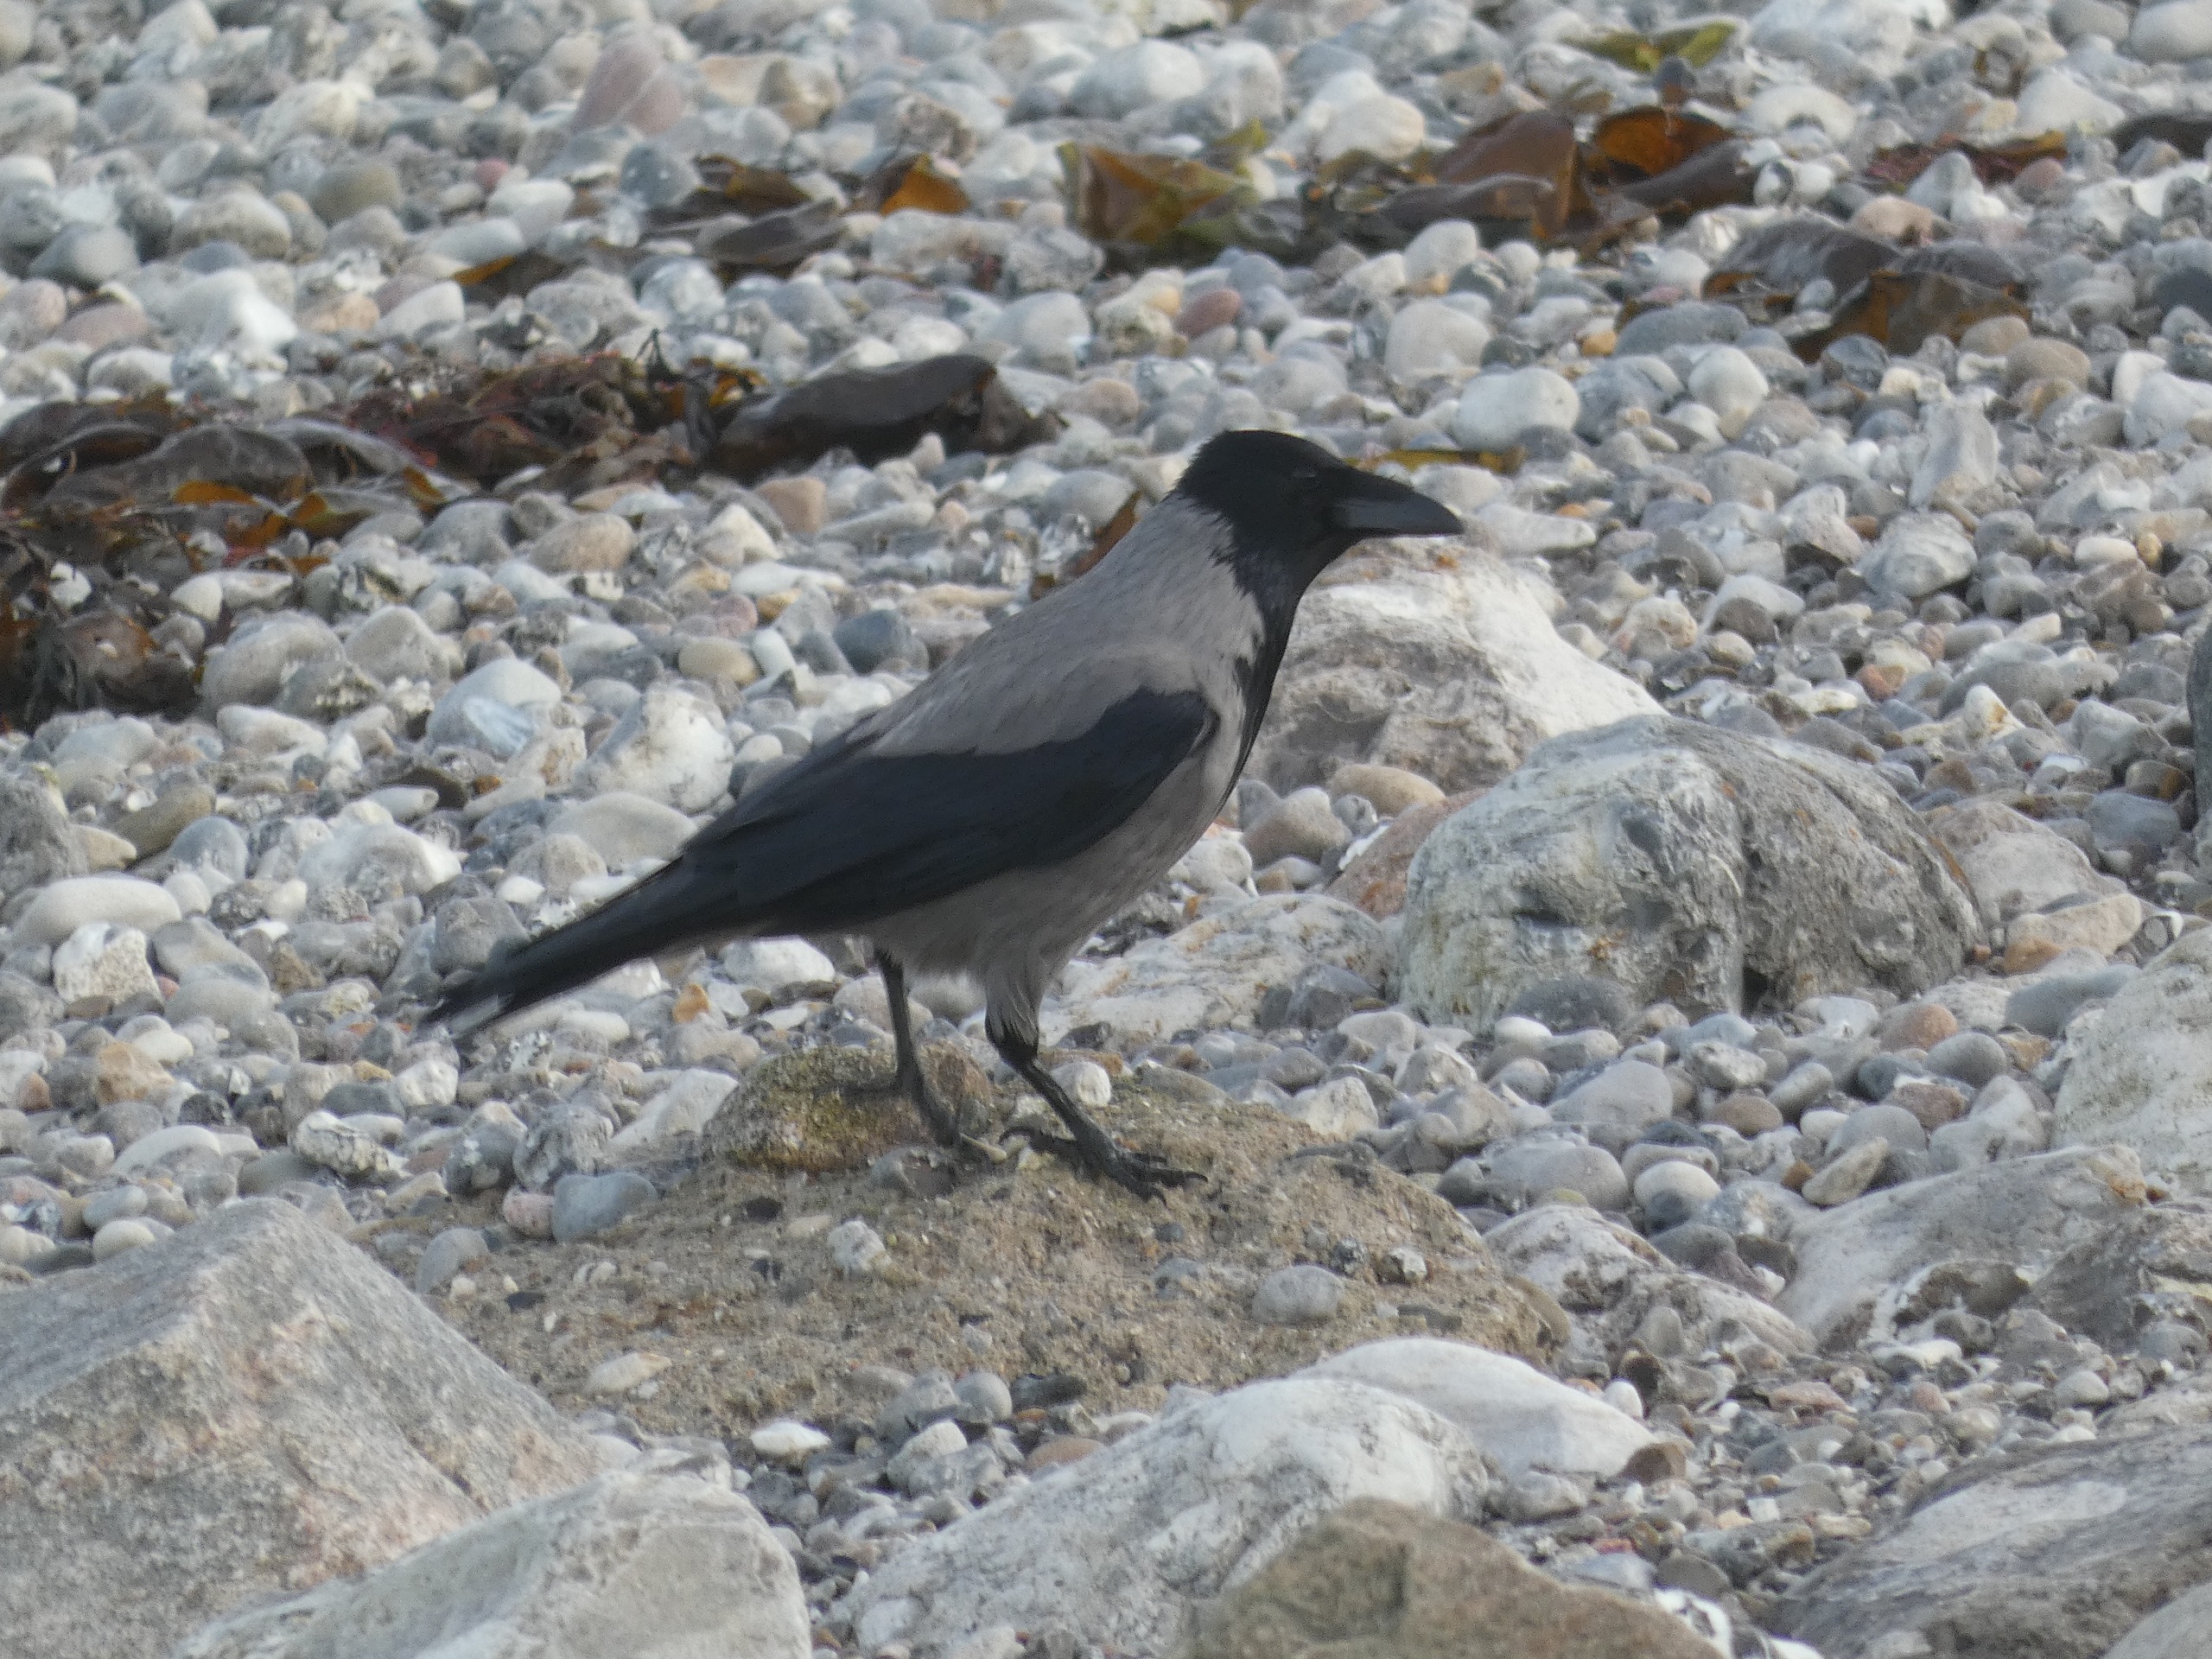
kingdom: Animalia
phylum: Chordata
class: Aves
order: Passeriformes
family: Corvidae
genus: Corvus
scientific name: Corvus cornix
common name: Gråkrage
